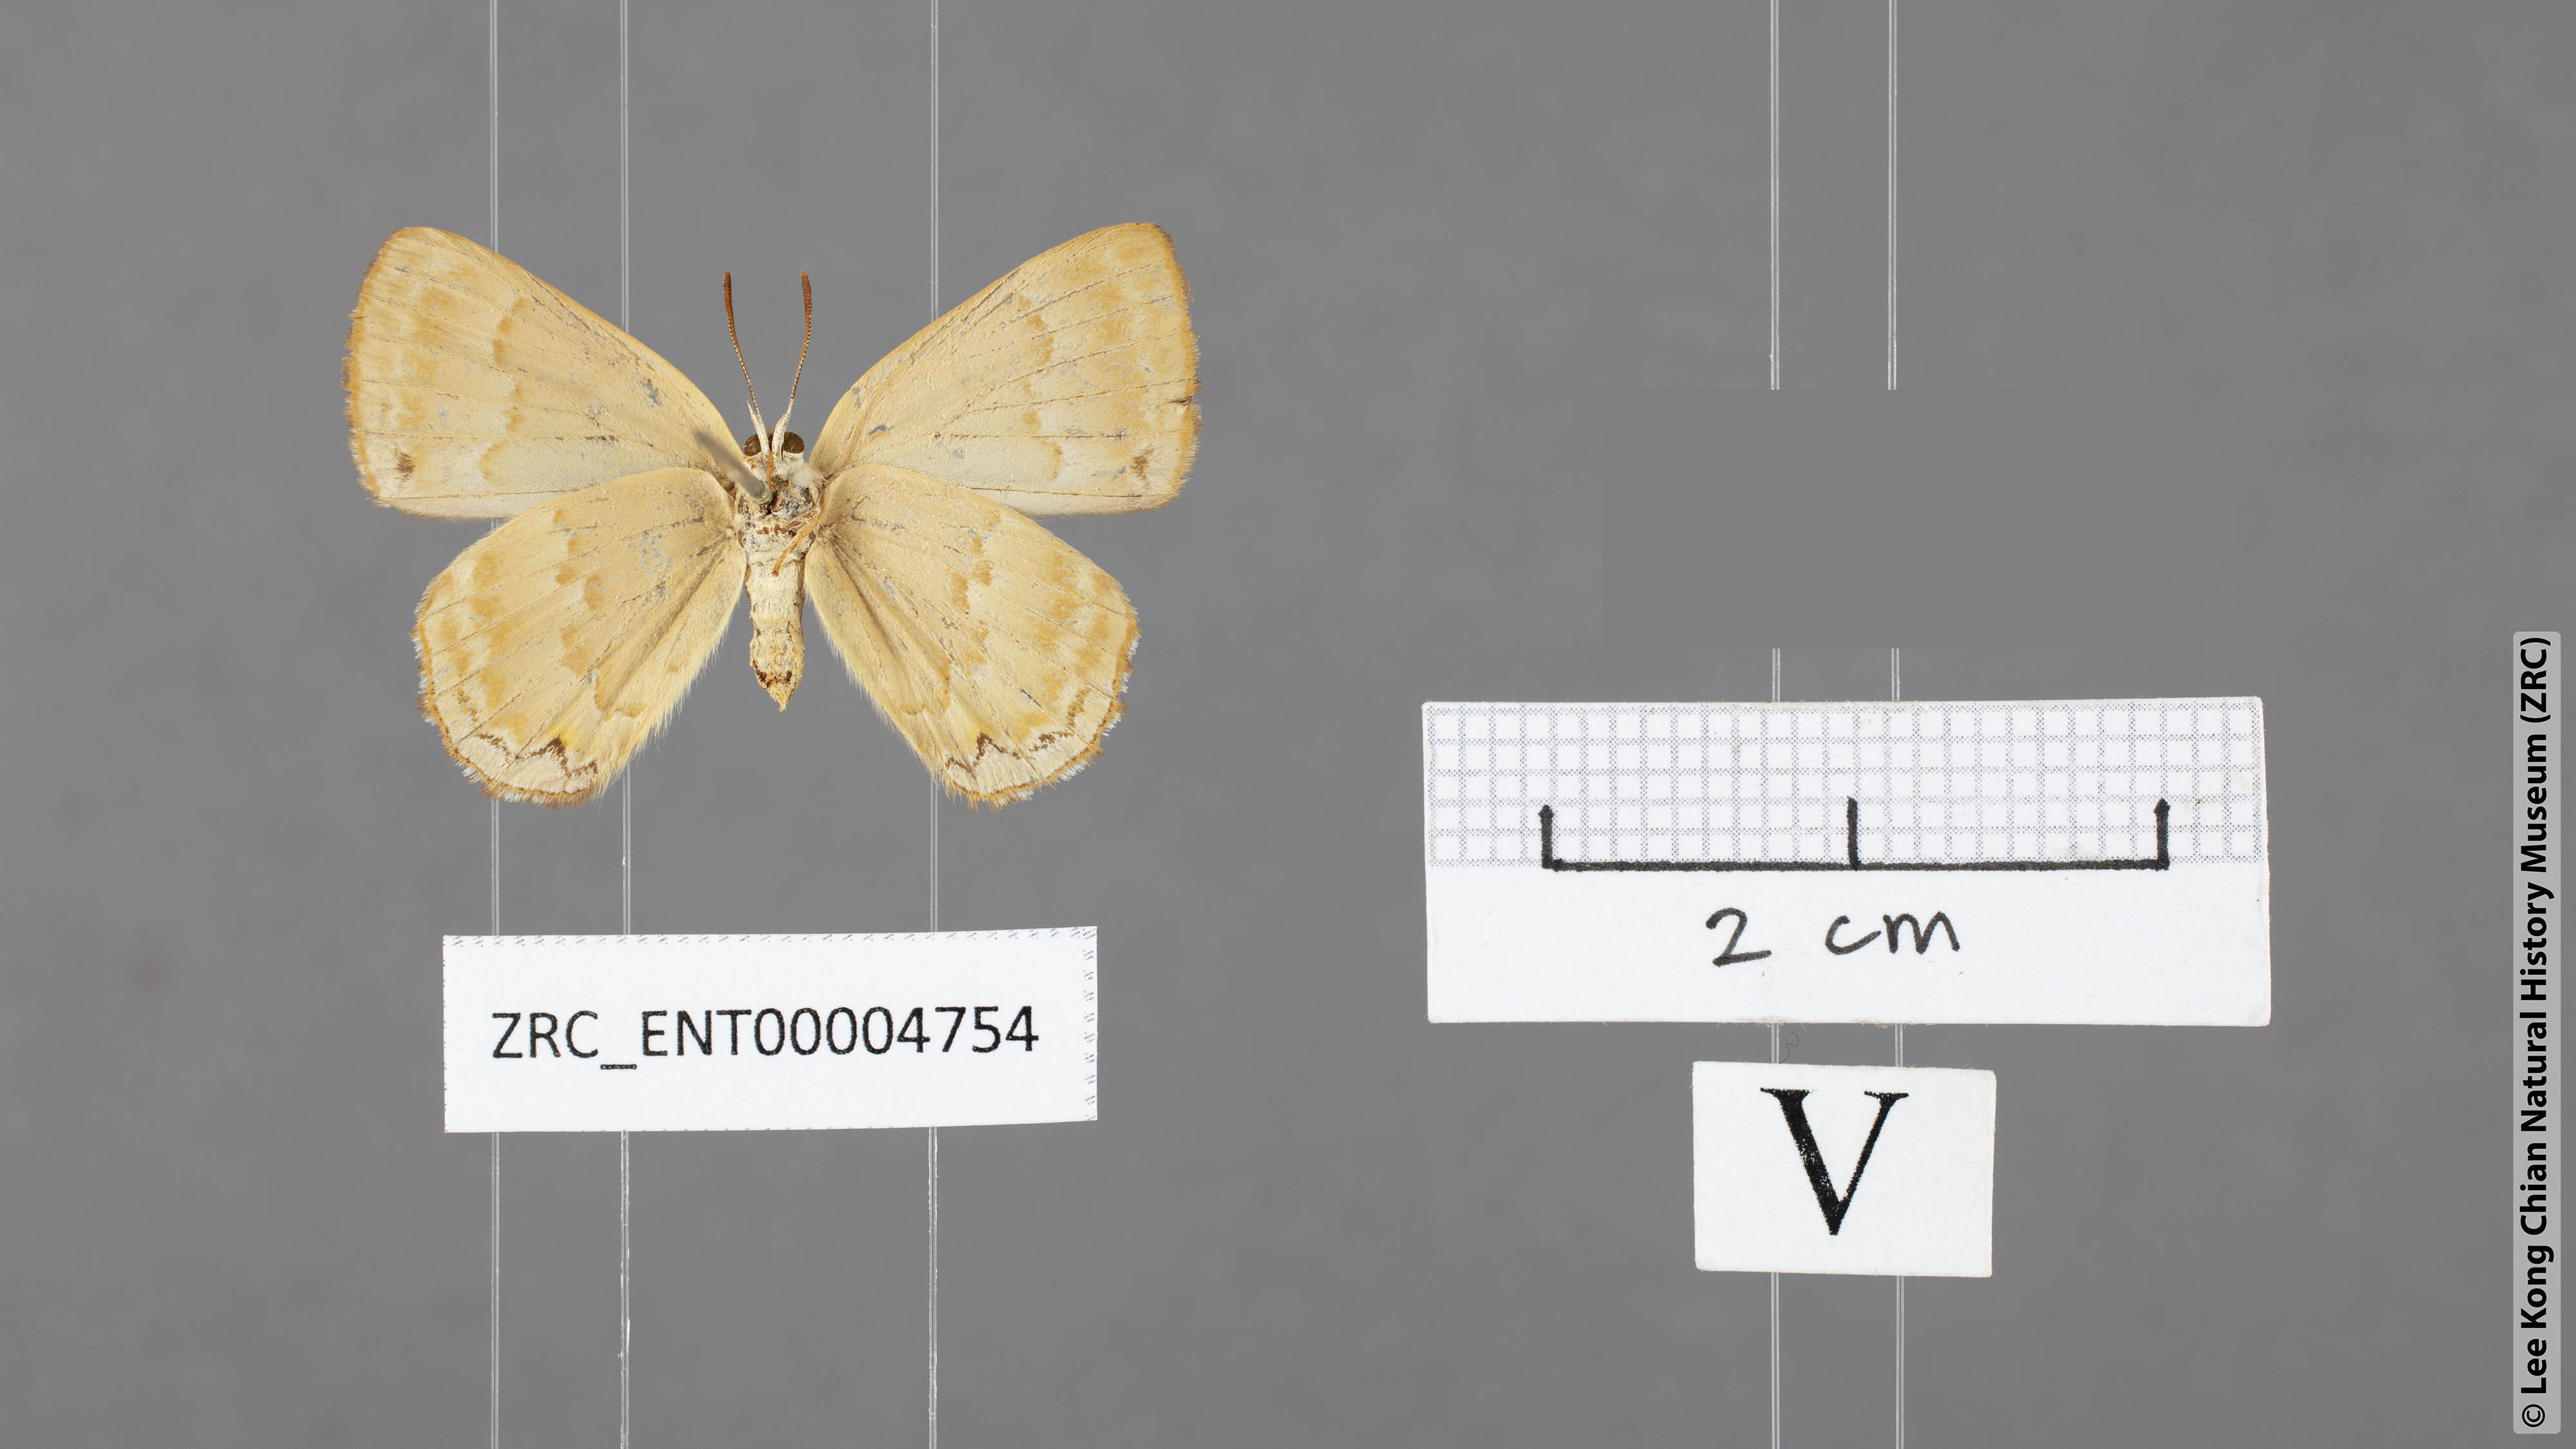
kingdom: Animalia
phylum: Arthropoda
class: Insecta
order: Lepidoptera
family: Lycaenidae
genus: Deramas
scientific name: Deramas alixae
